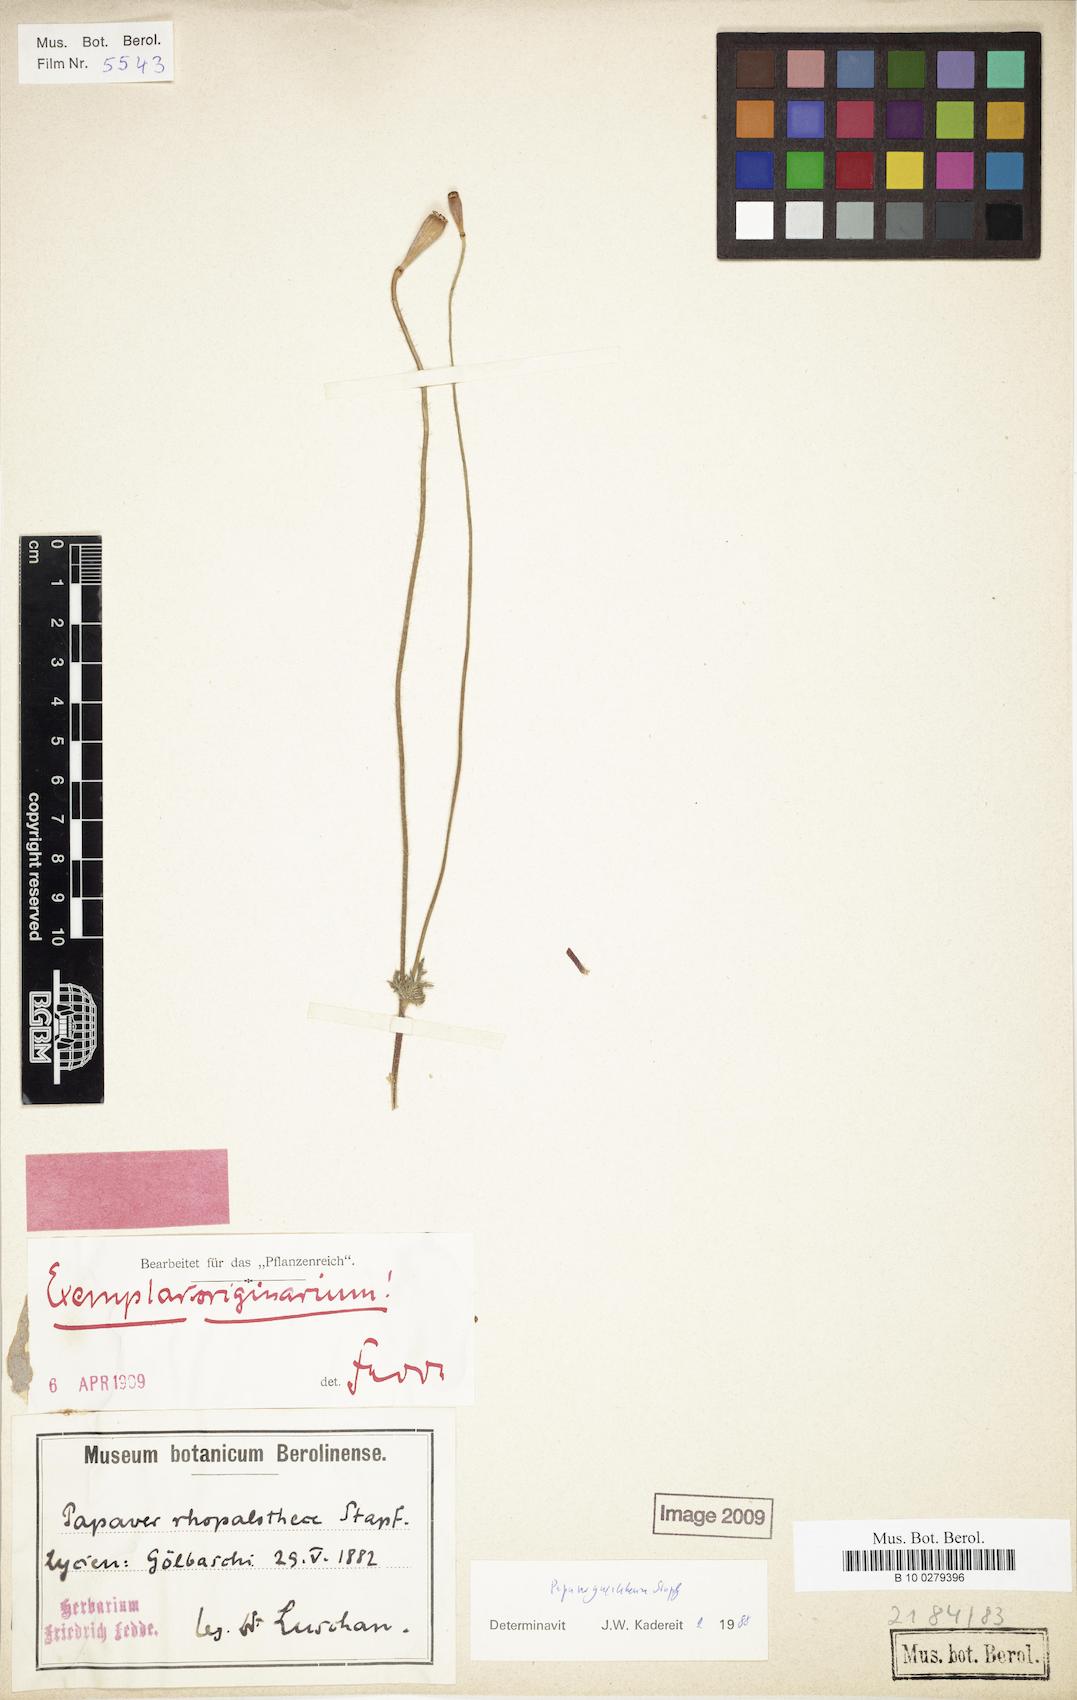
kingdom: Plantae
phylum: Tracheophyta
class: Magnoliopsida
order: Ranunculales
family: Papaveraceae
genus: Papaver
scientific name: Papaver guerlekense
